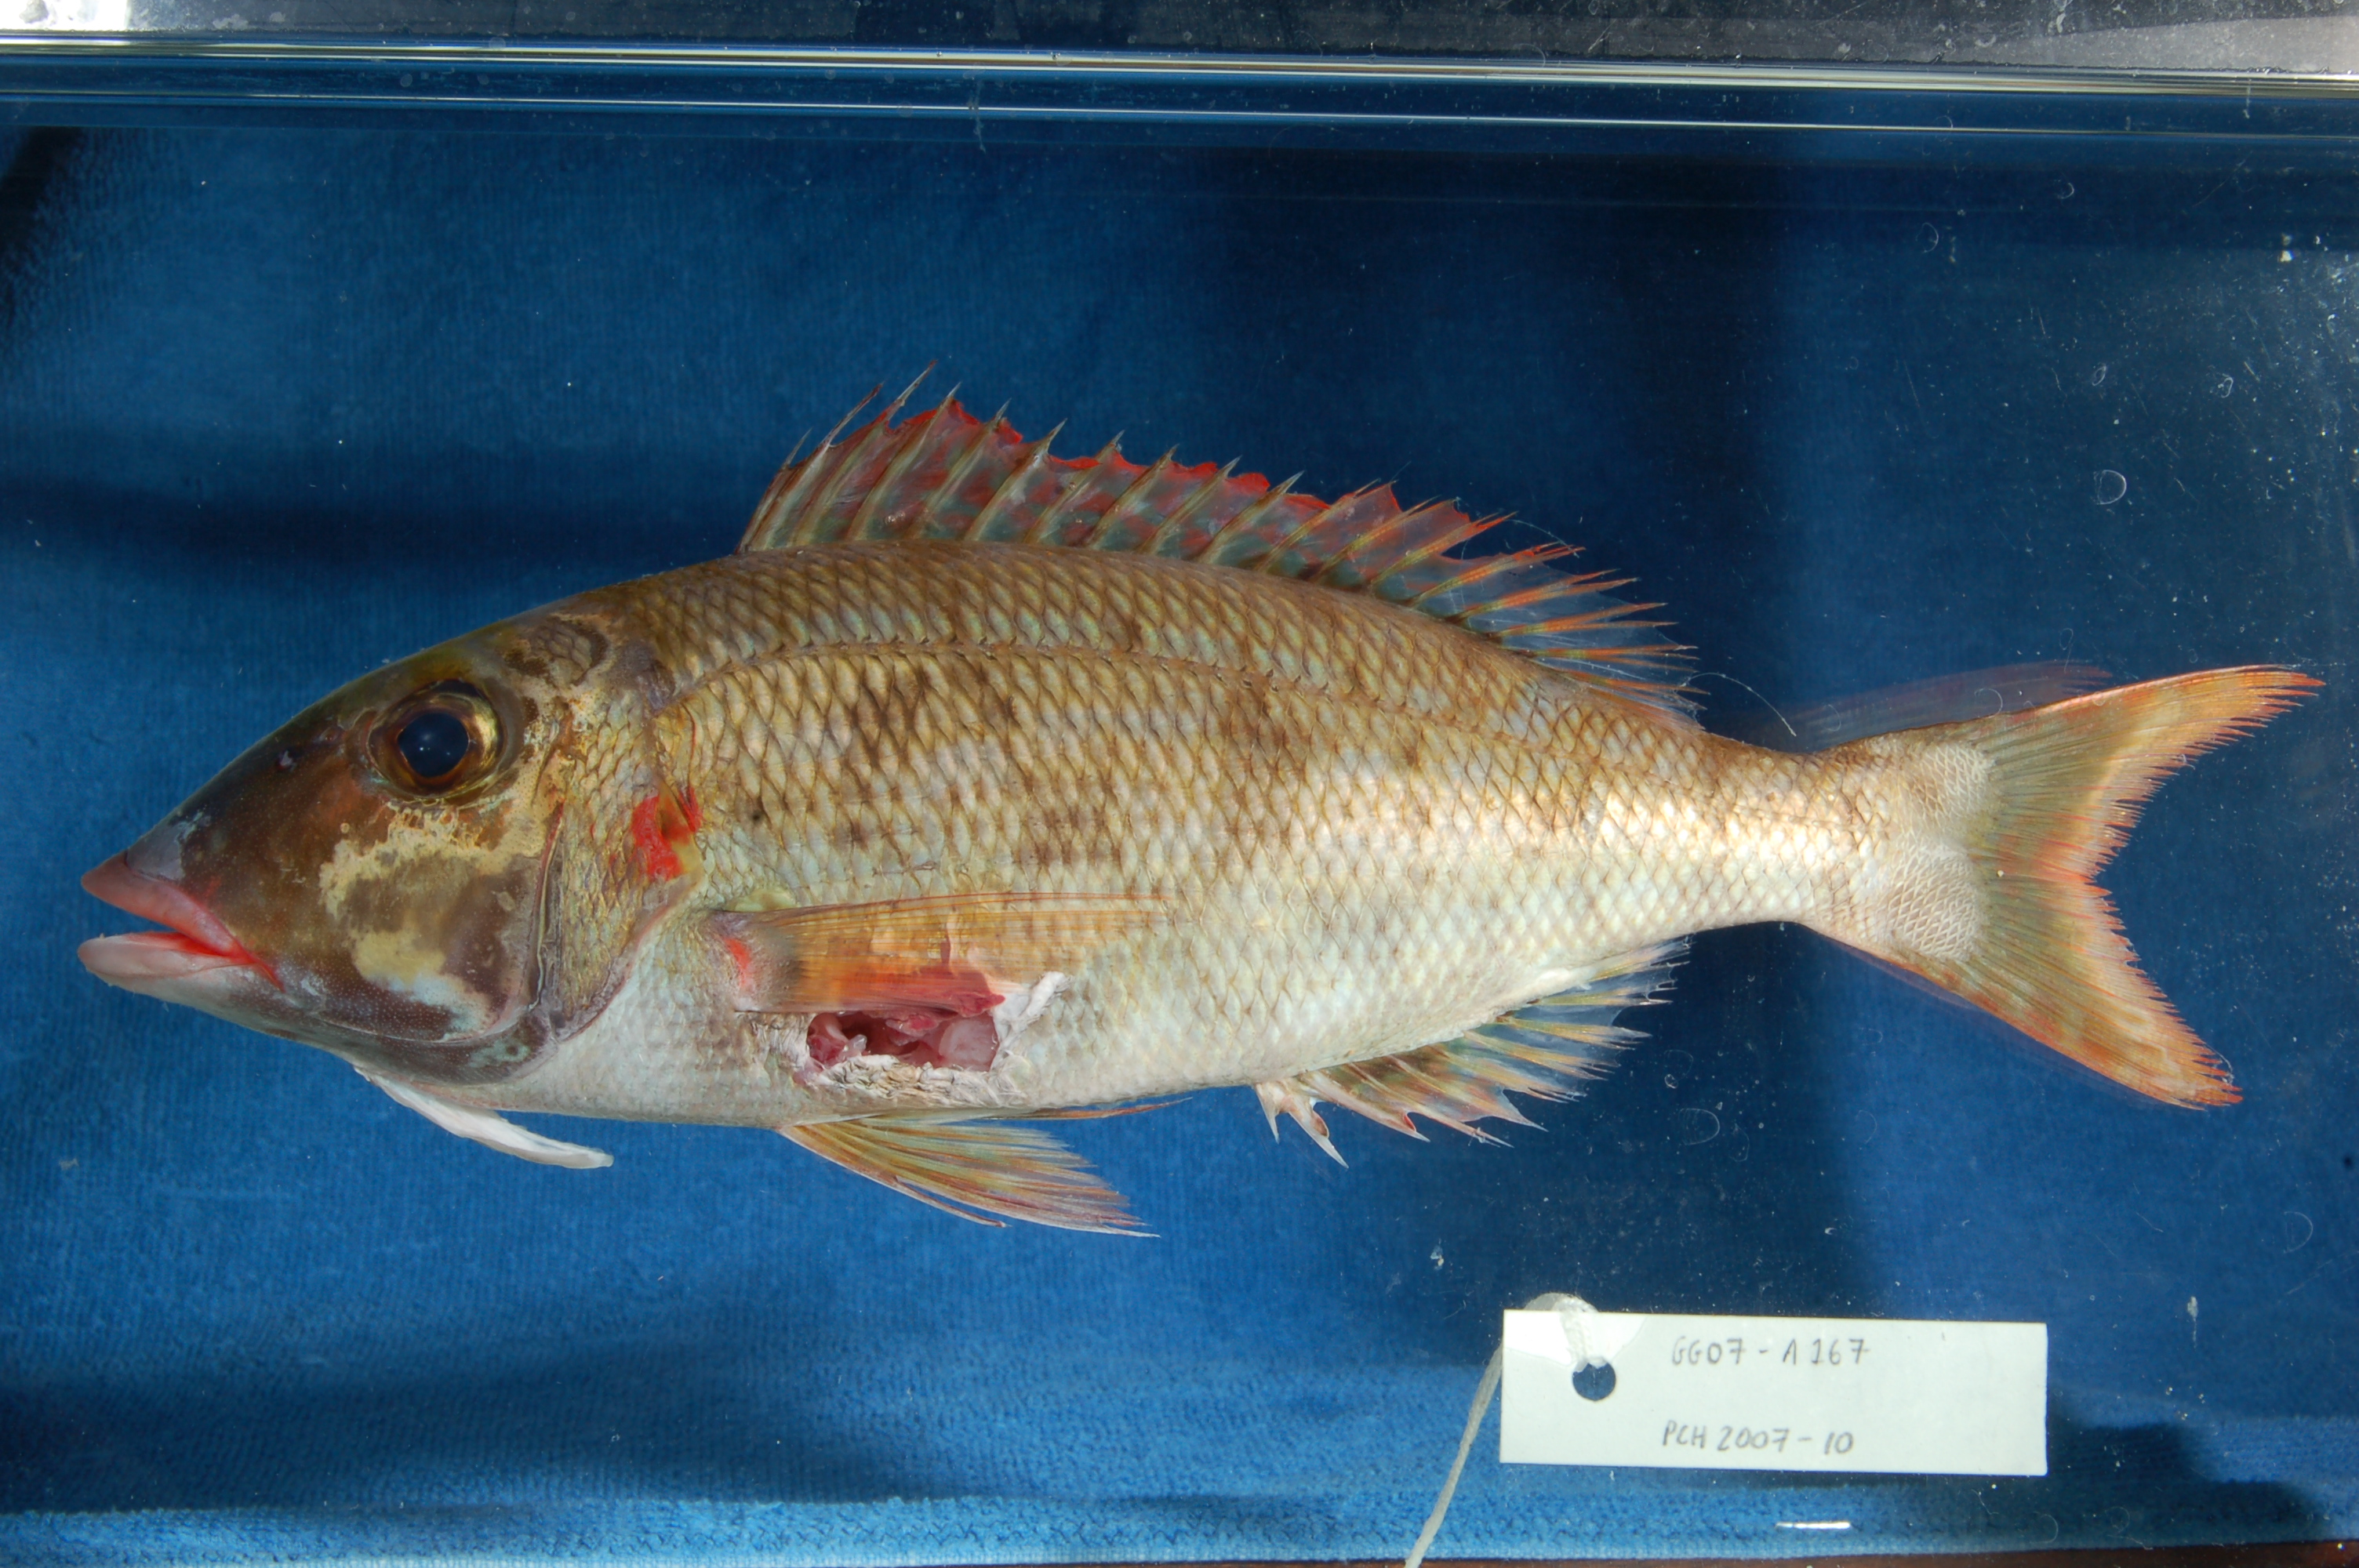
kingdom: Animalia
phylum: Chordata
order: Perciformes
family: Lethrinidae
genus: Lethrinus
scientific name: Lethrinus rubrioperculatus
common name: Spotcheek emperor
